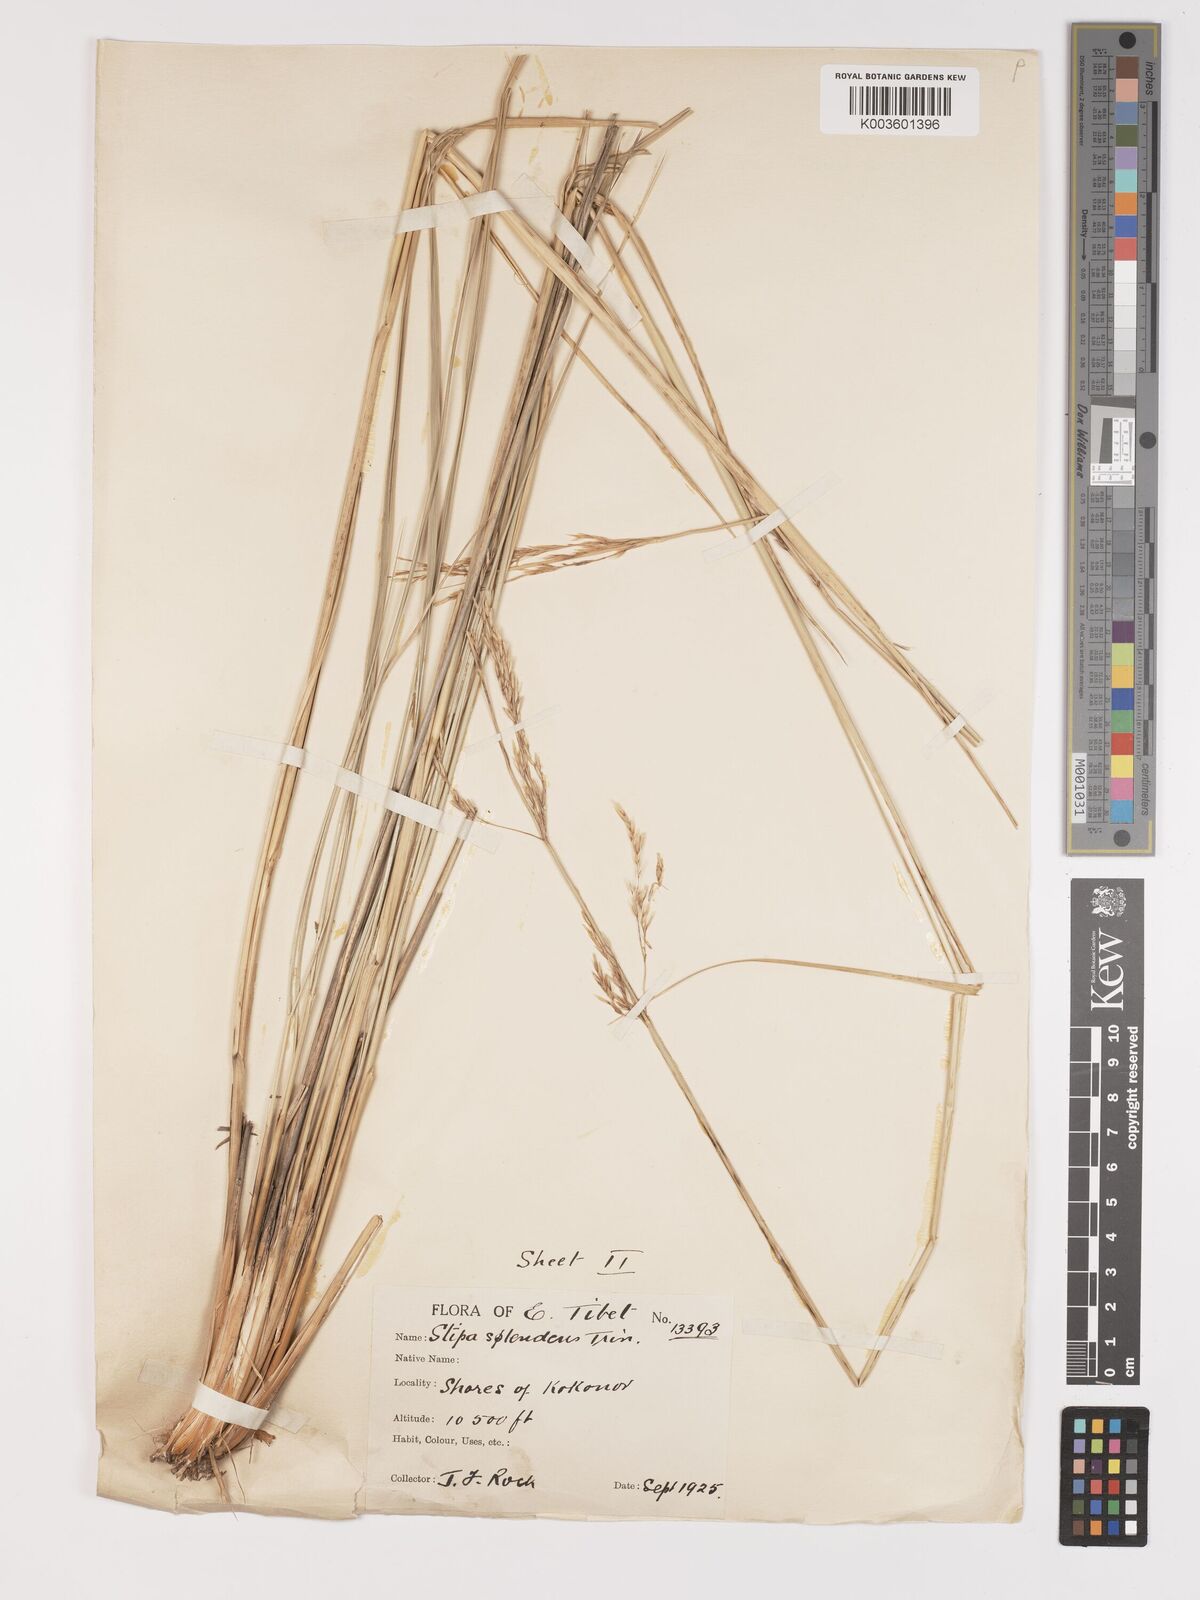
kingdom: Plantae
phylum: Tracheophyta
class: Liliopsida
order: Poales
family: Poaceae
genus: Neotrinia
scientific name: Neotrinia splendens
